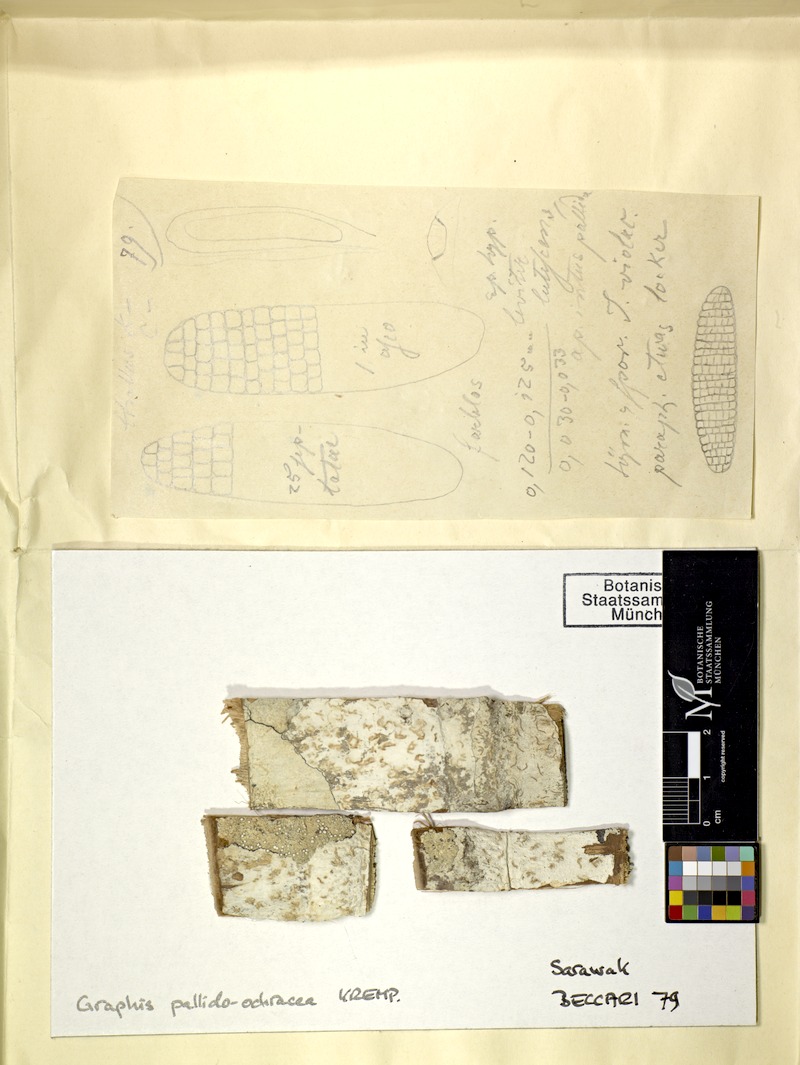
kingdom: Fungi
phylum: Ascomycota
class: Lecanoromycetes
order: Ostropales
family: Graphidaceae
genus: Diorygma
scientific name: Diorygma hieroglyphicum
